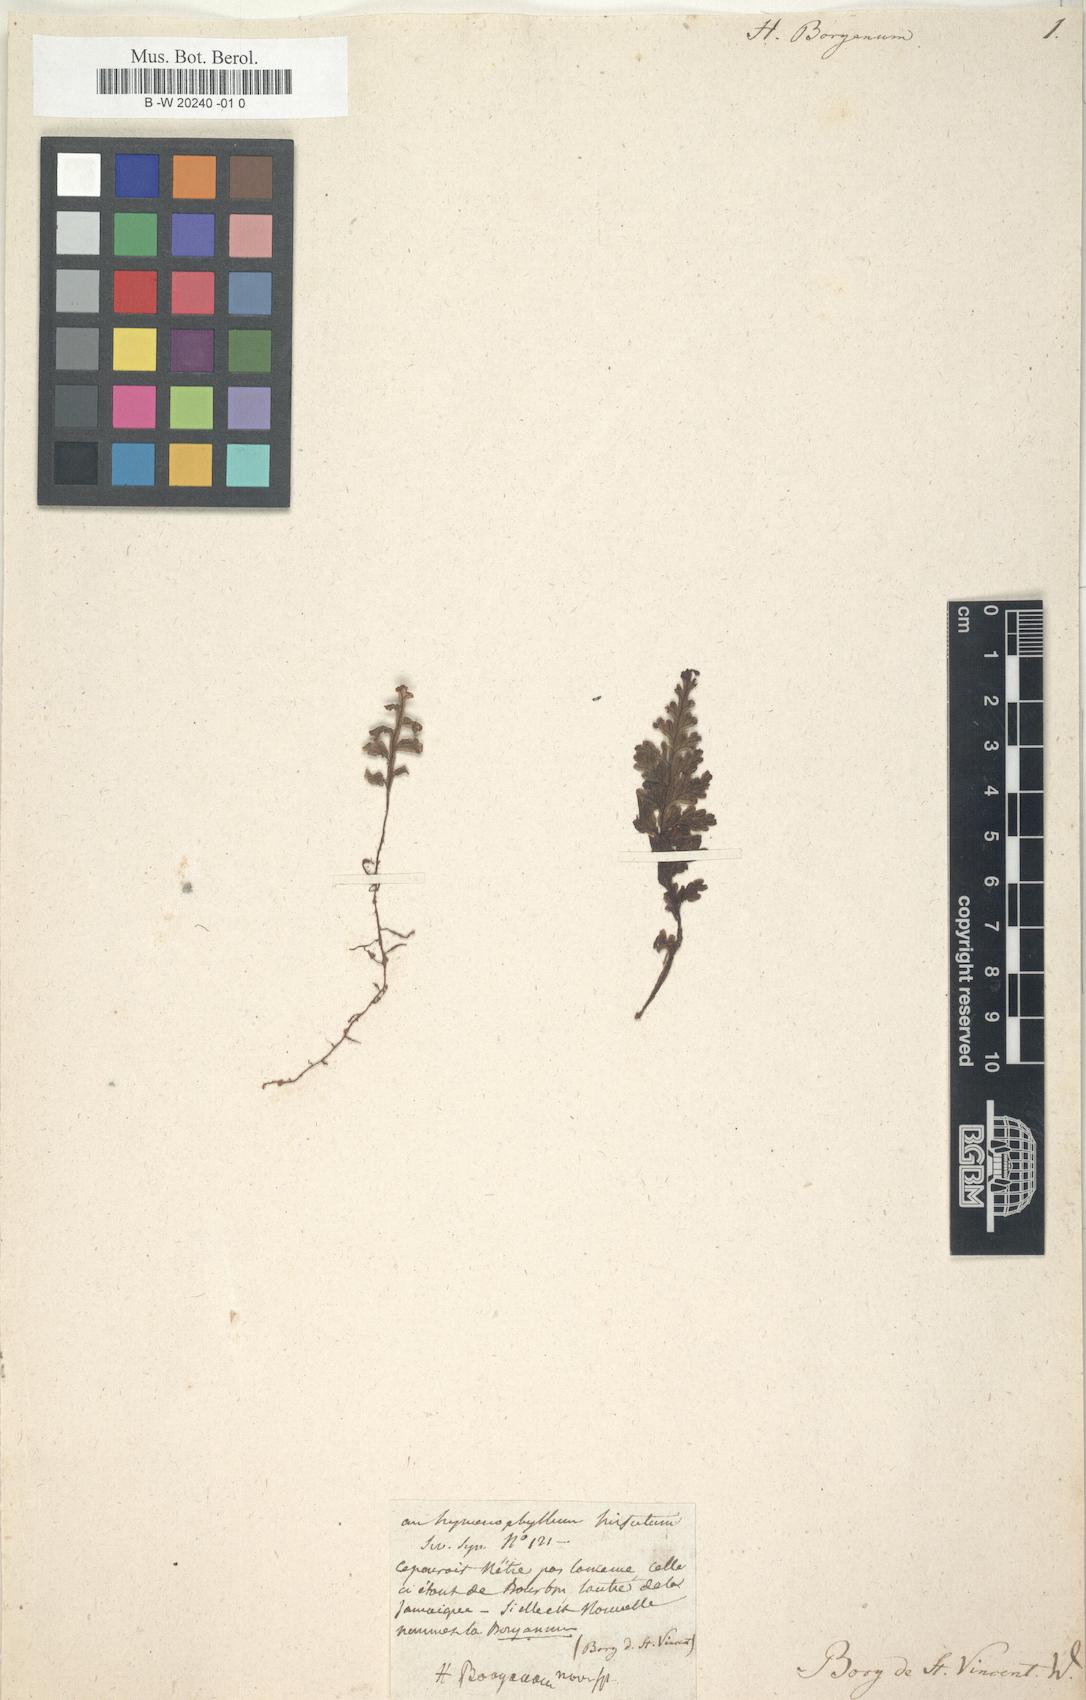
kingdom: Plantae
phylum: Tracheophyta
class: Polypodiopsida
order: Hymenophyllales
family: Hymenophyllaceae
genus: Hymenophyllum
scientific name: Hymenophyllum hirsutum
